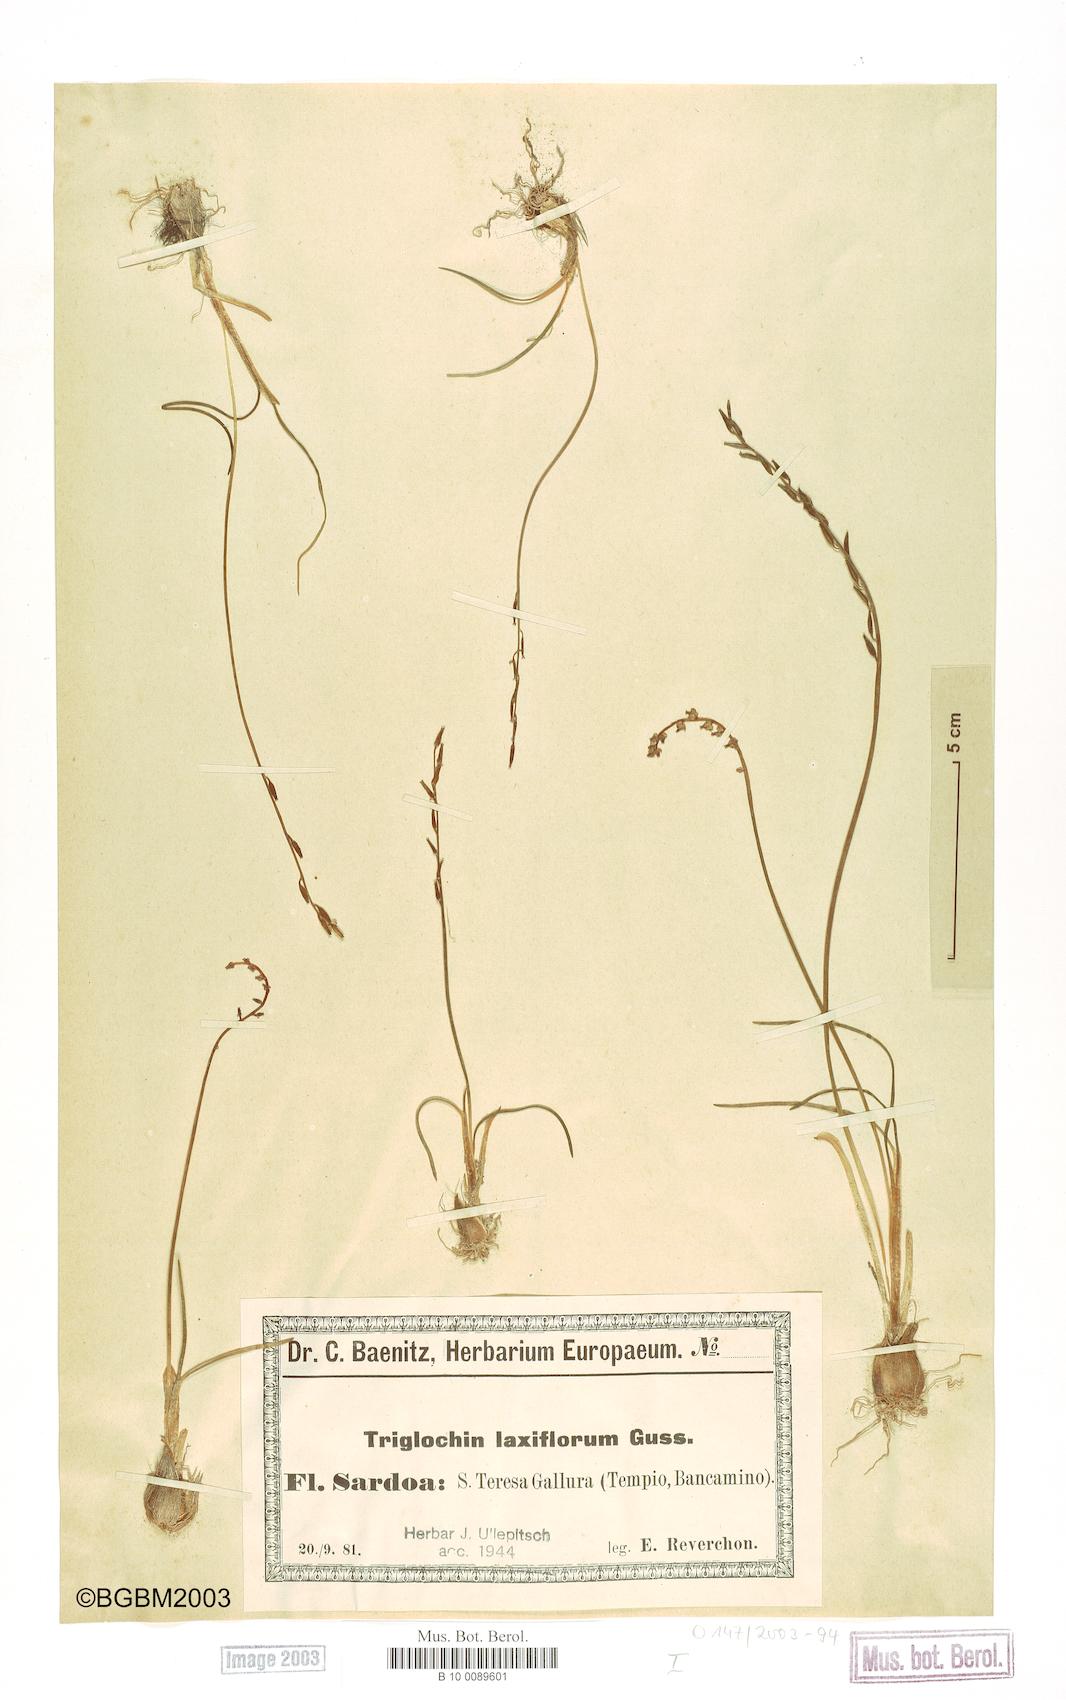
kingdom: Plantae
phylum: Tracheophyta
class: Liliopsida
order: Alismatales
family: Juncaginaceae
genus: Triglochin
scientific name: Triglochin laxiflora
